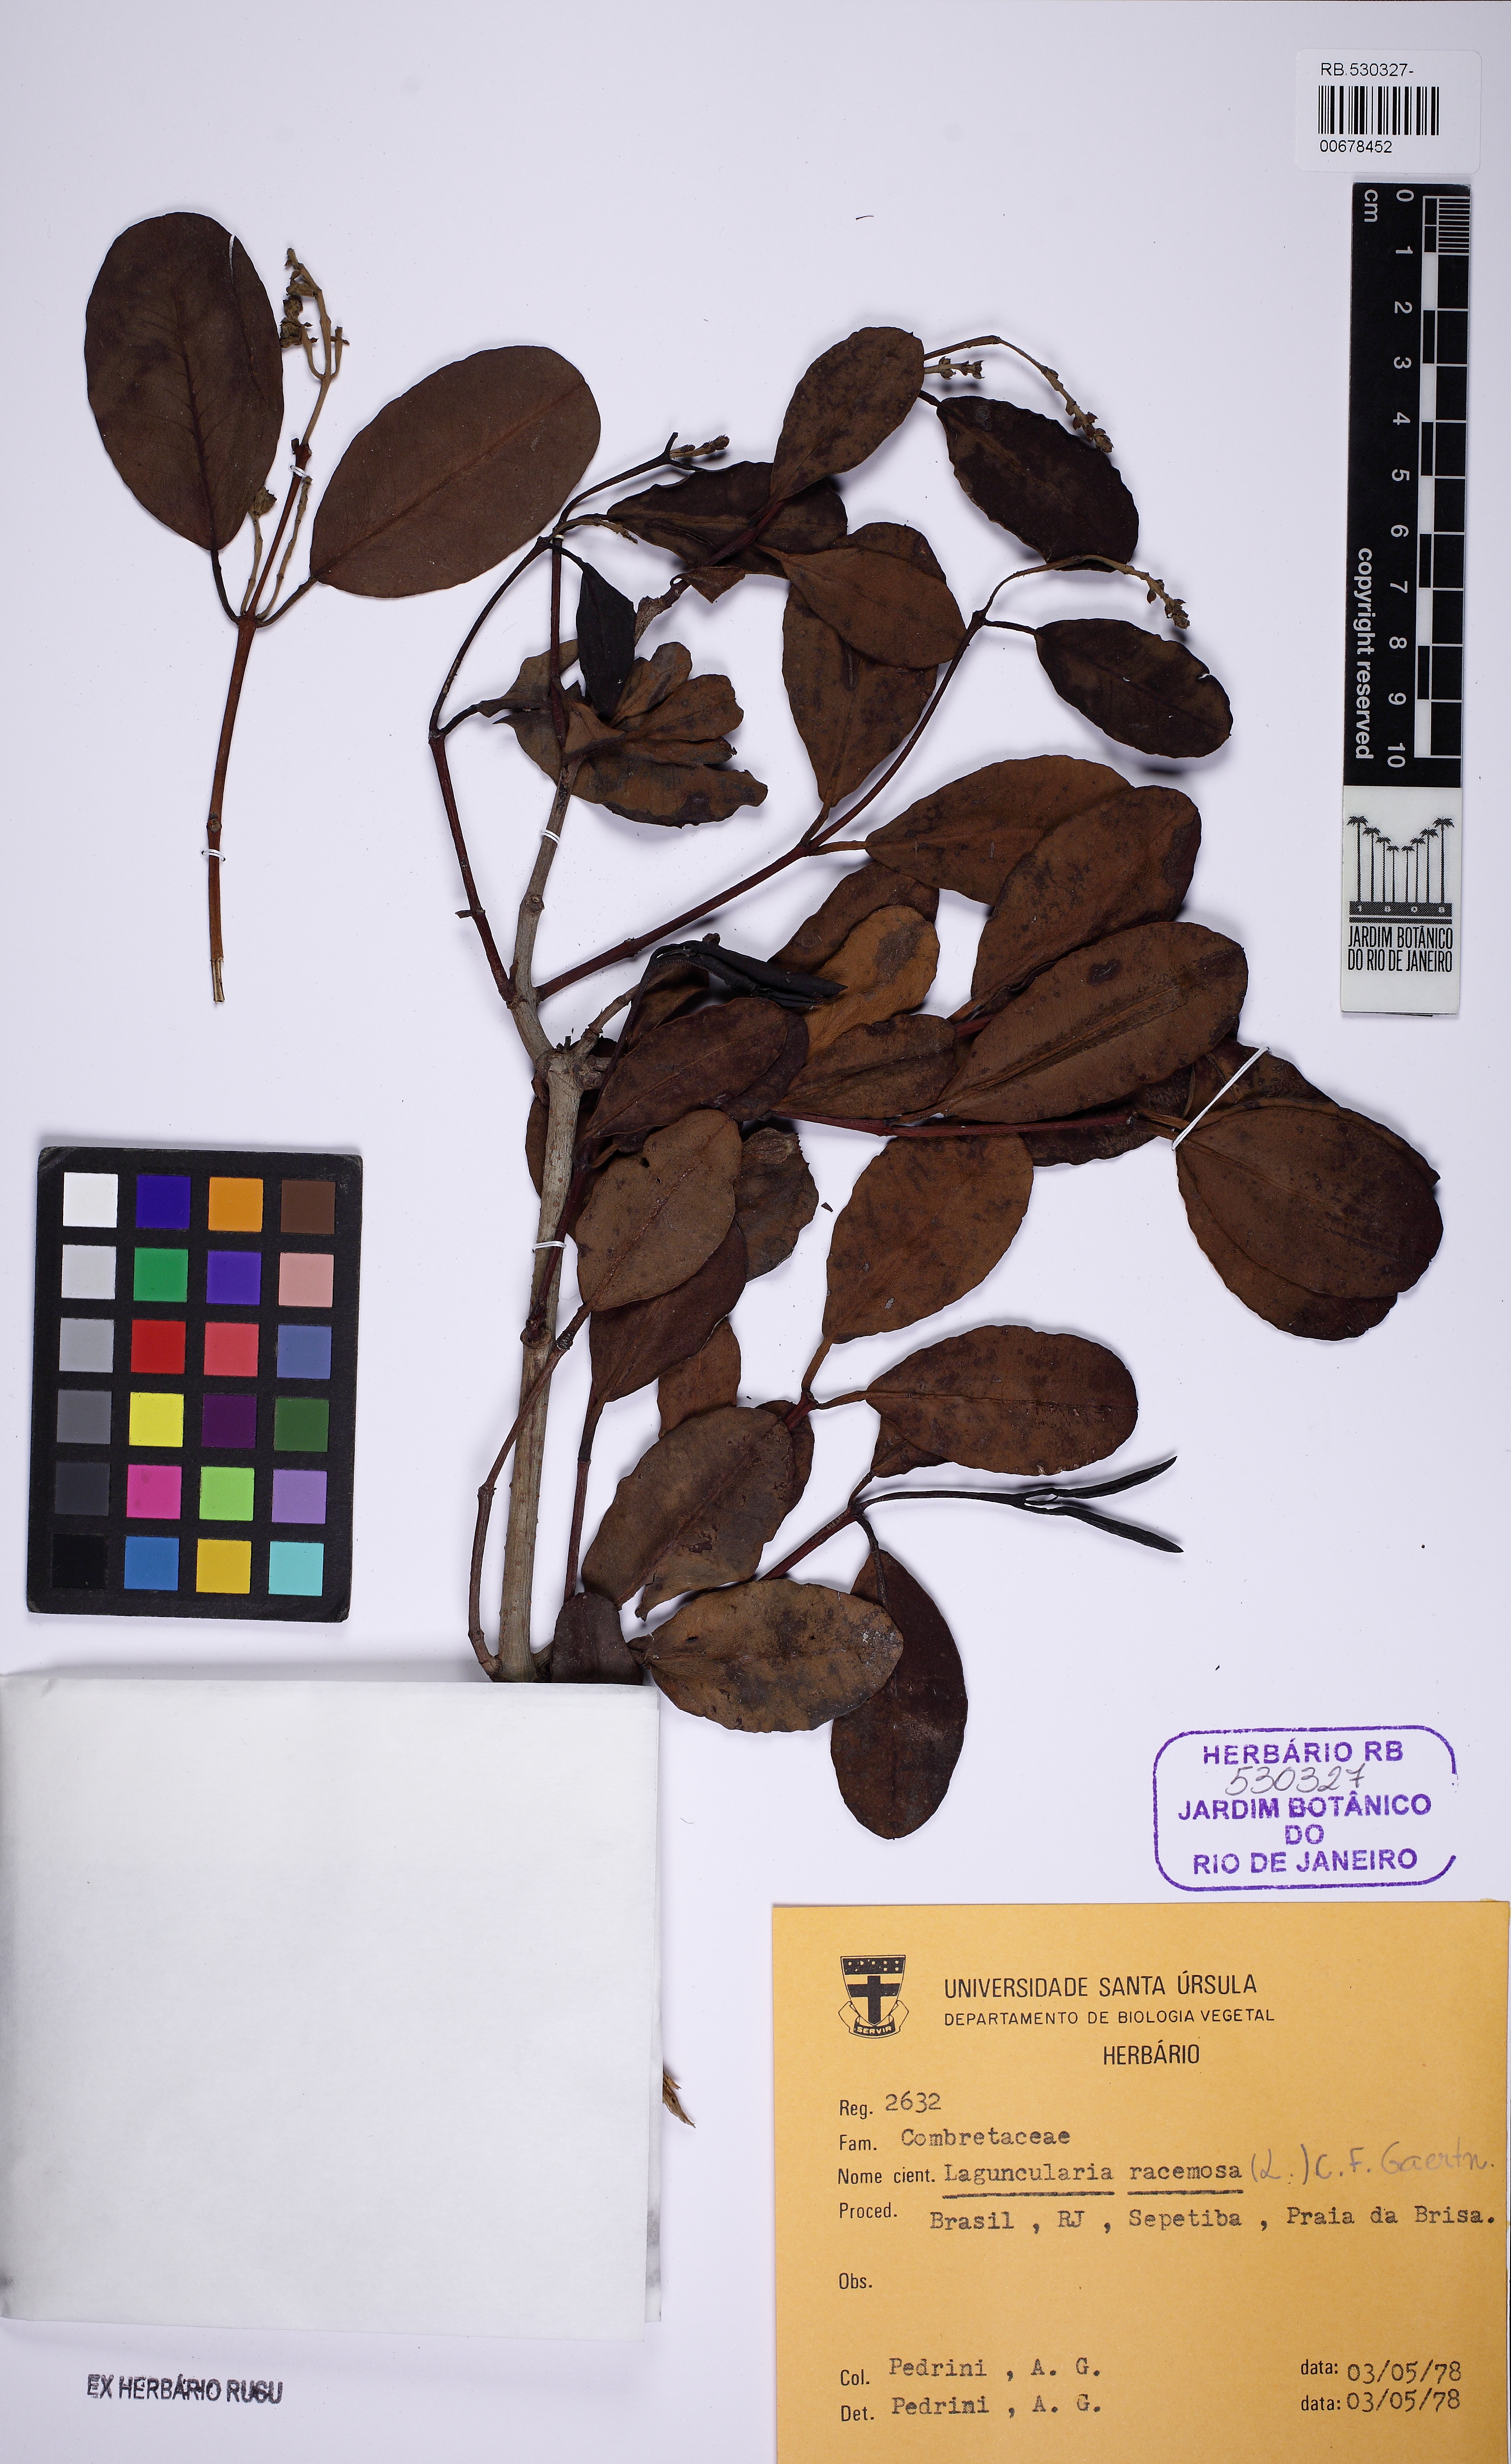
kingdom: Plantae
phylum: Tracheophyta
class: Magnoliopsida
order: Myrtales
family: Combretaceae
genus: Laguncularia
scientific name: Laguncularia racemosa
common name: White mangrove
